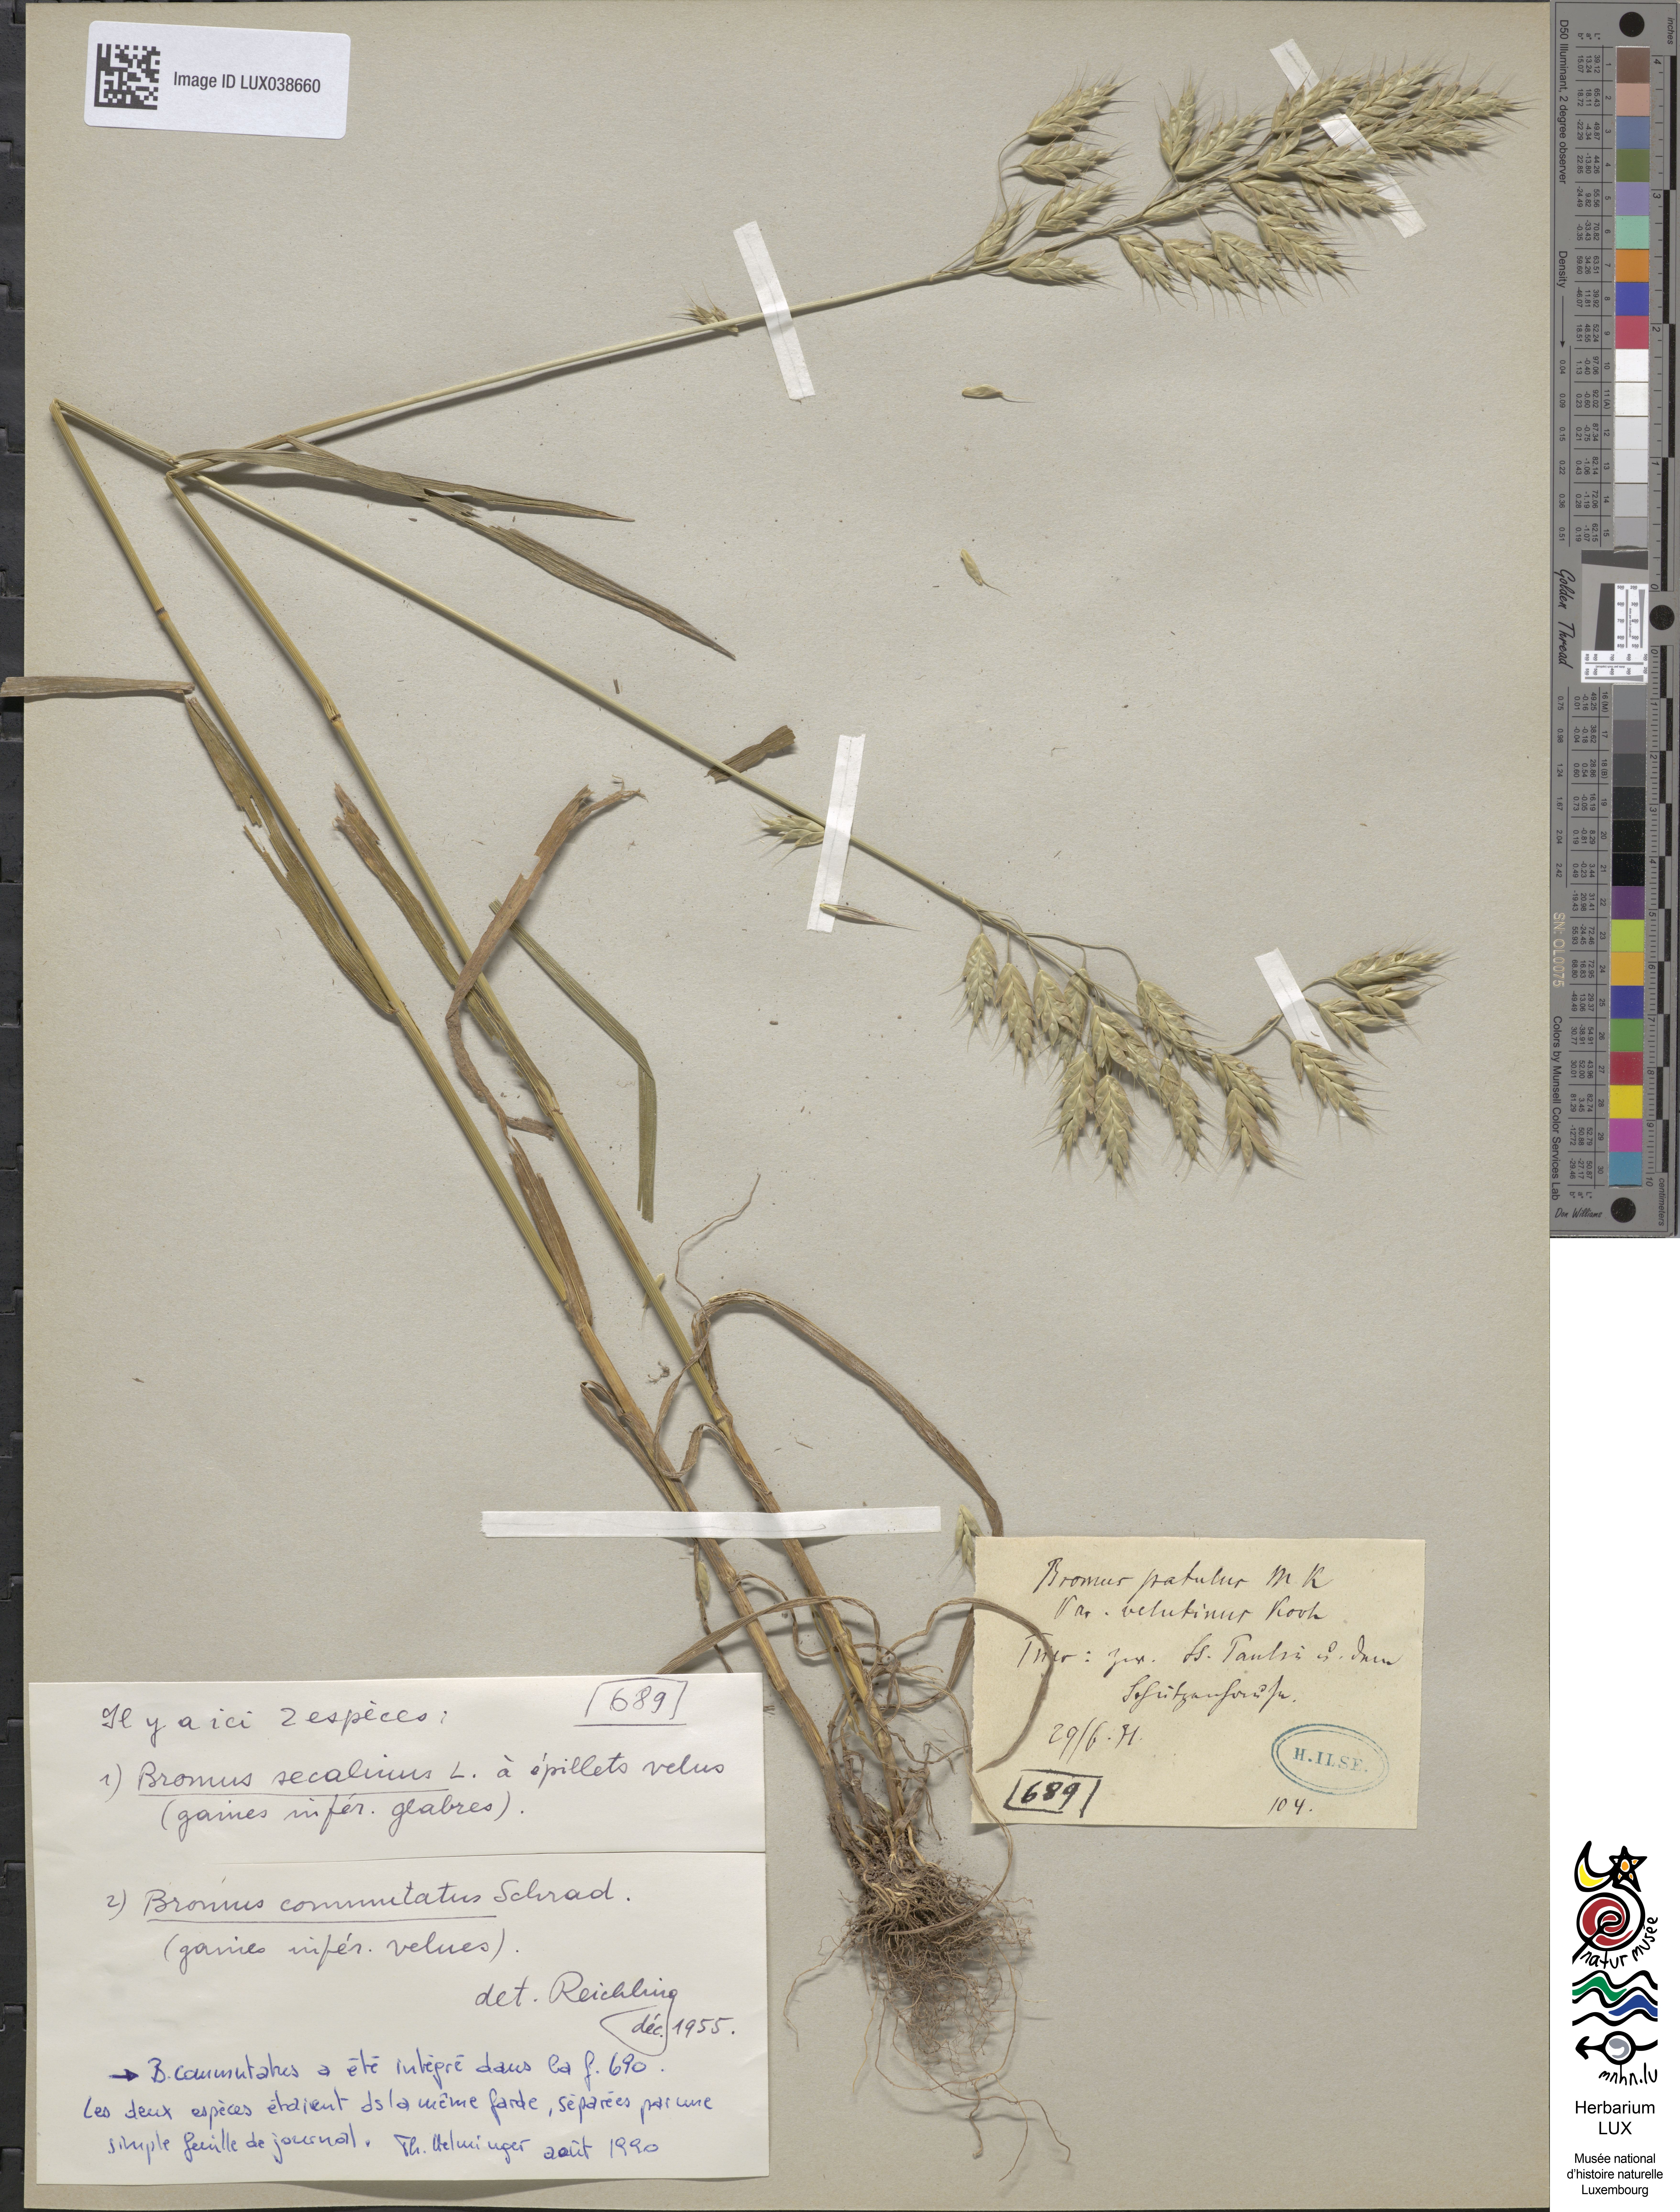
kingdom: Plantae
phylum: Tracheophyta
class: Liliopsida
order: Poales
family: Poaceae
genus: Bromus
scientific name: Bromus secalinus
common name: Rye brome
